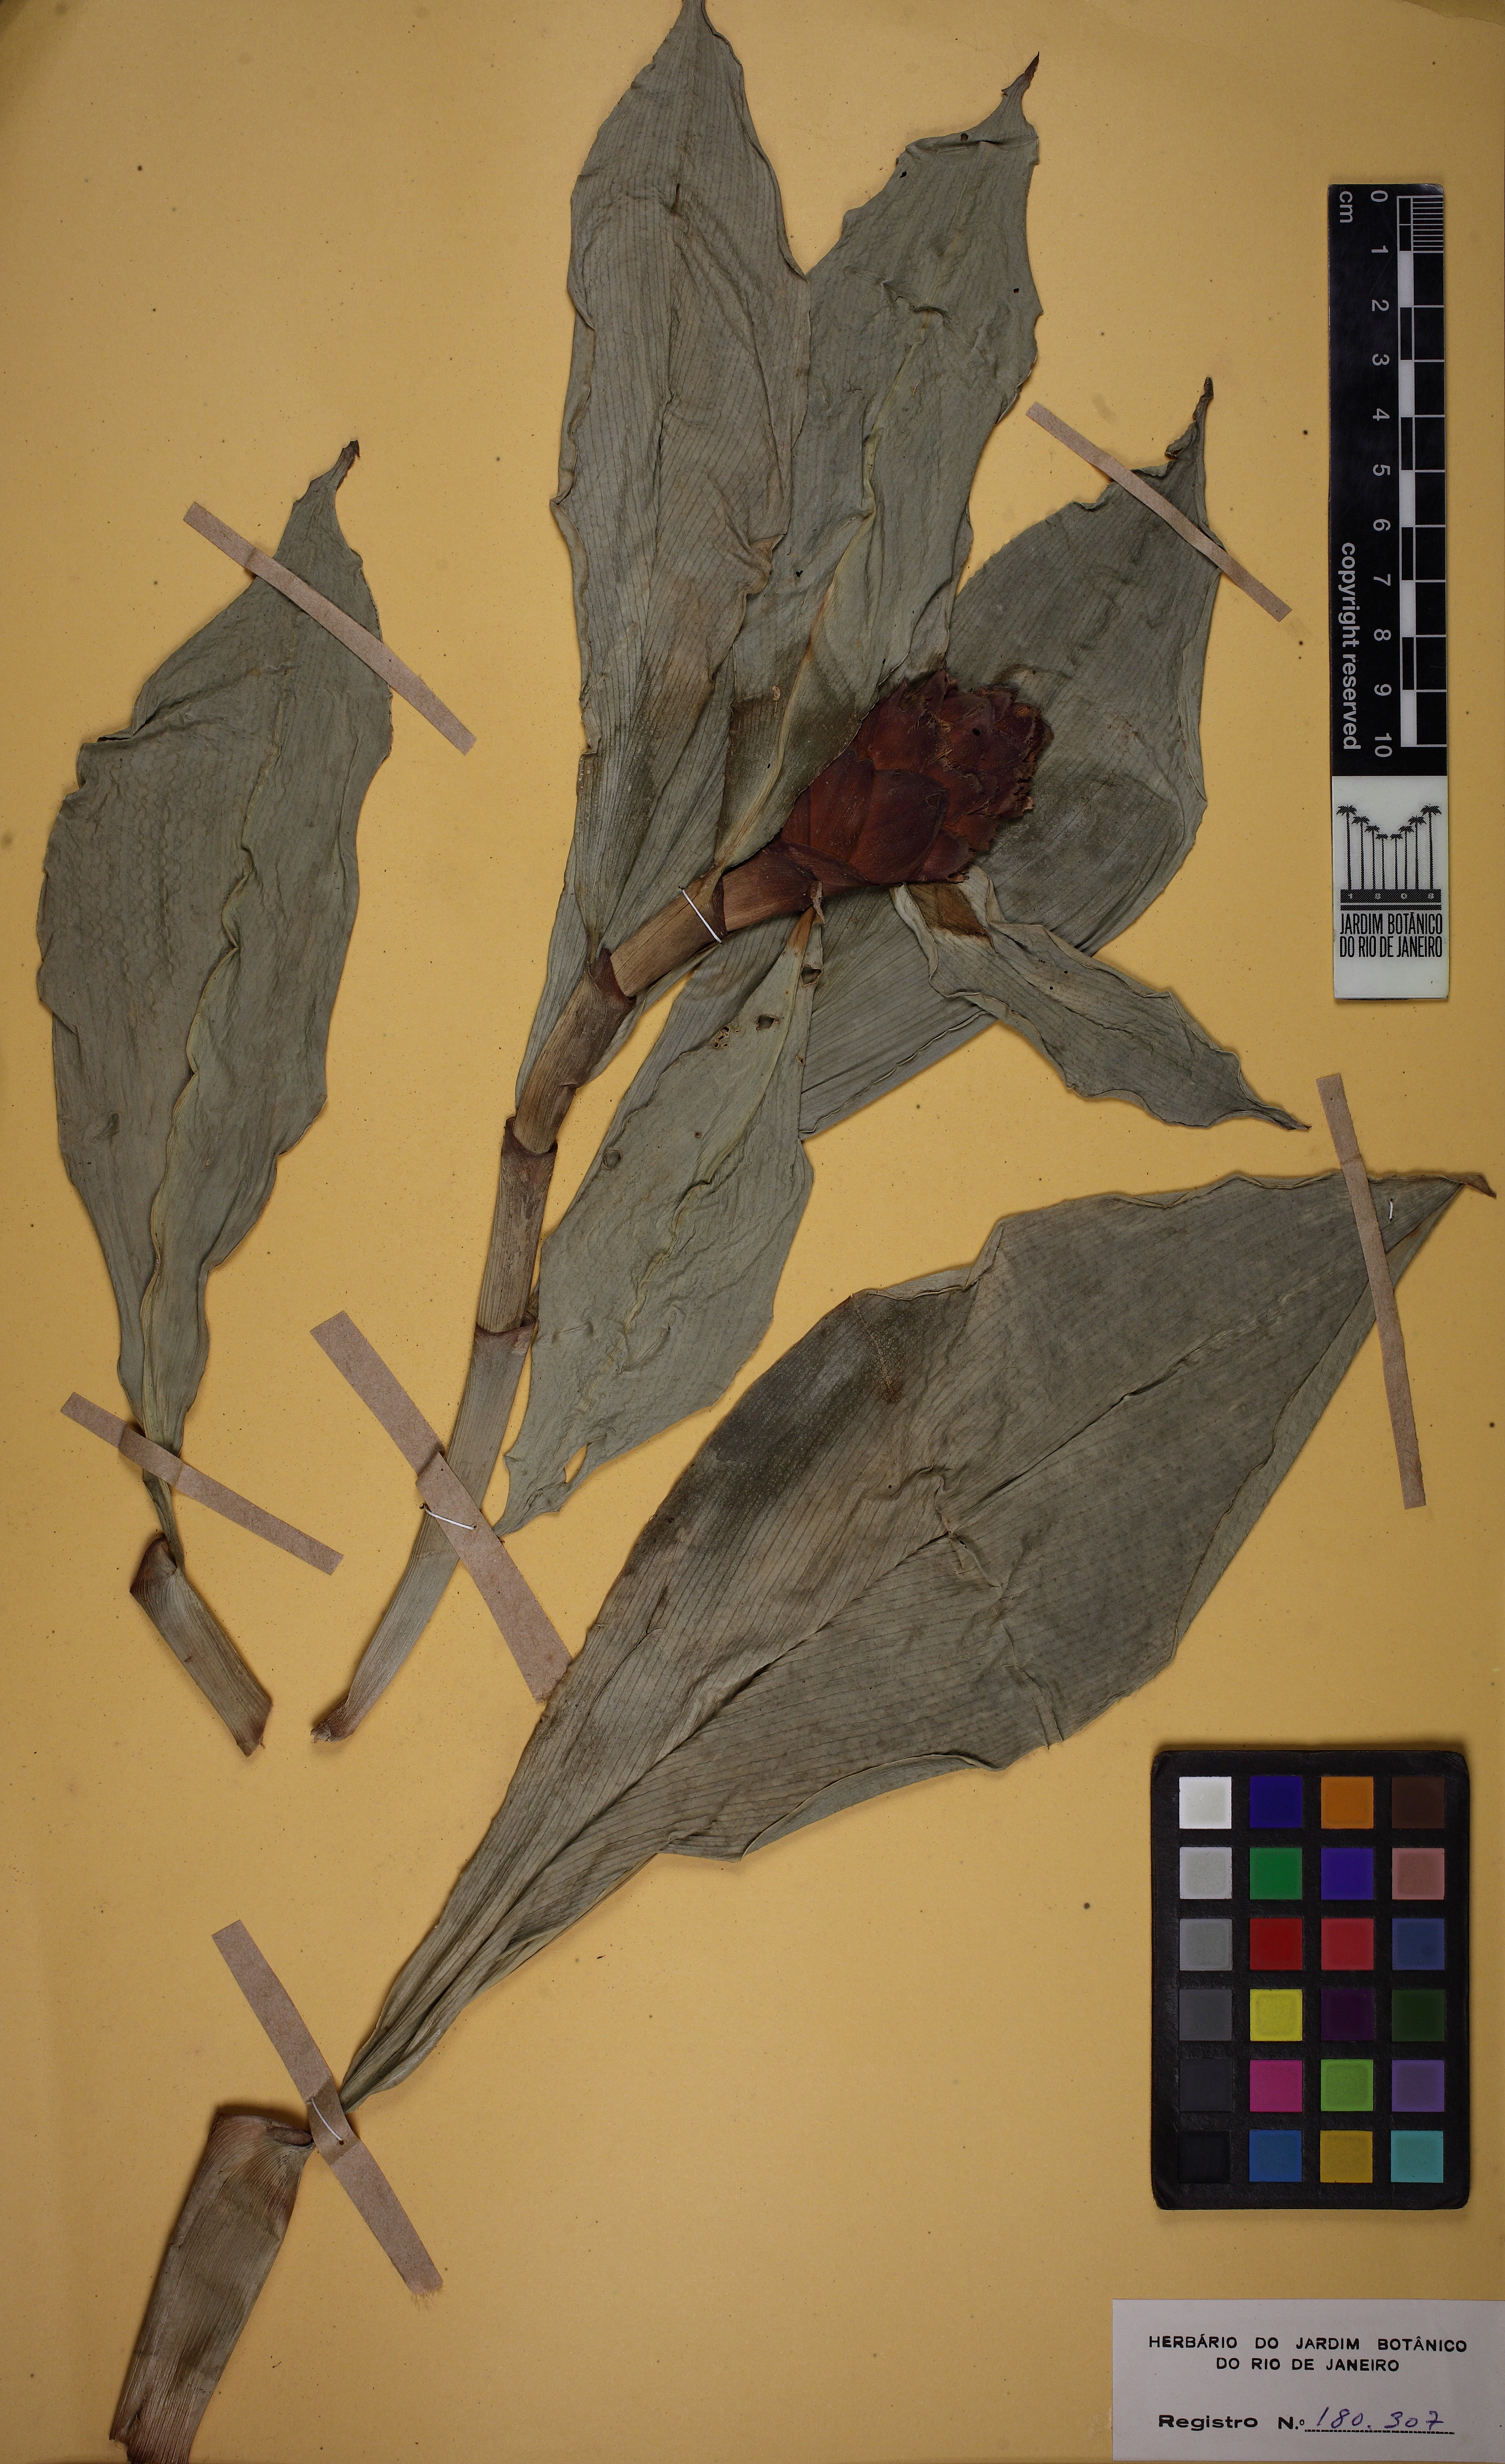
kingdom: Plantae
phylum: Tracheophyta
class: Liliopsida
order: Zingiberales
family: Costaceae
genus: Costus
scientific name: Costus spiralis
